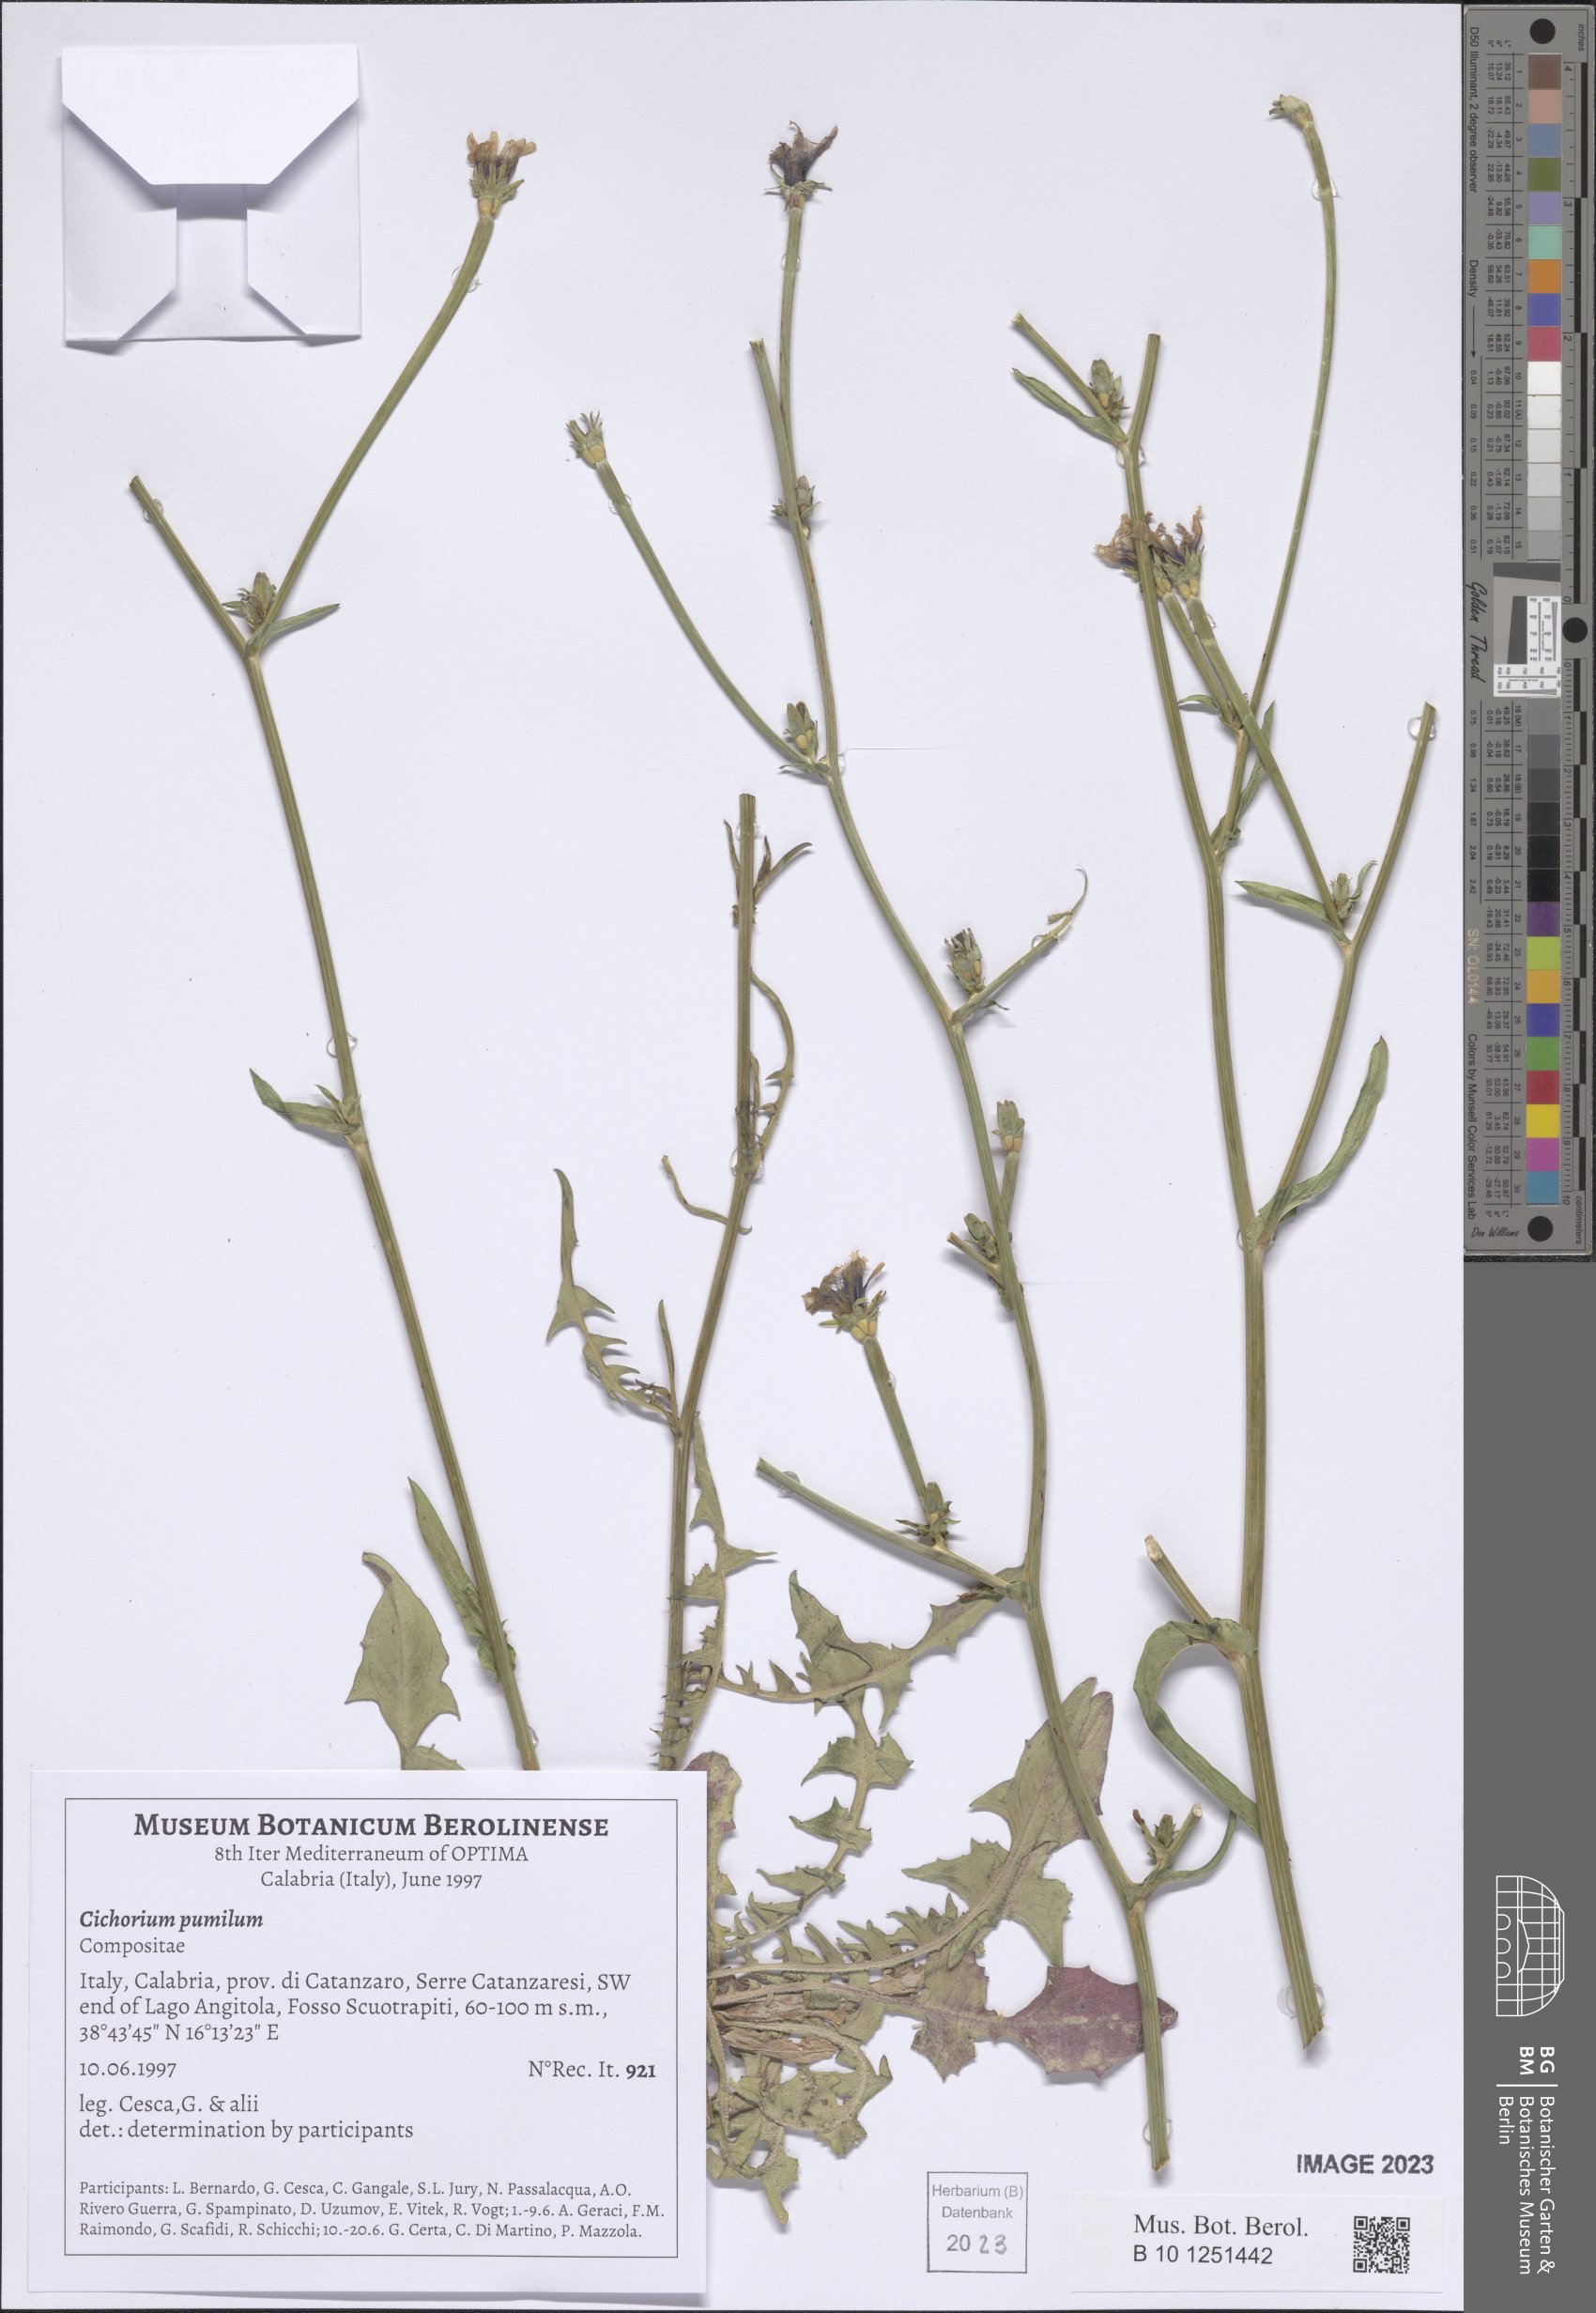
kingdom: Plantae
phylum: Tracheophyta
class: Magnoliopsida
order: Asterales
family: Asteraceae
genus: Cichorium
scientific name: Cichorium pumilum
